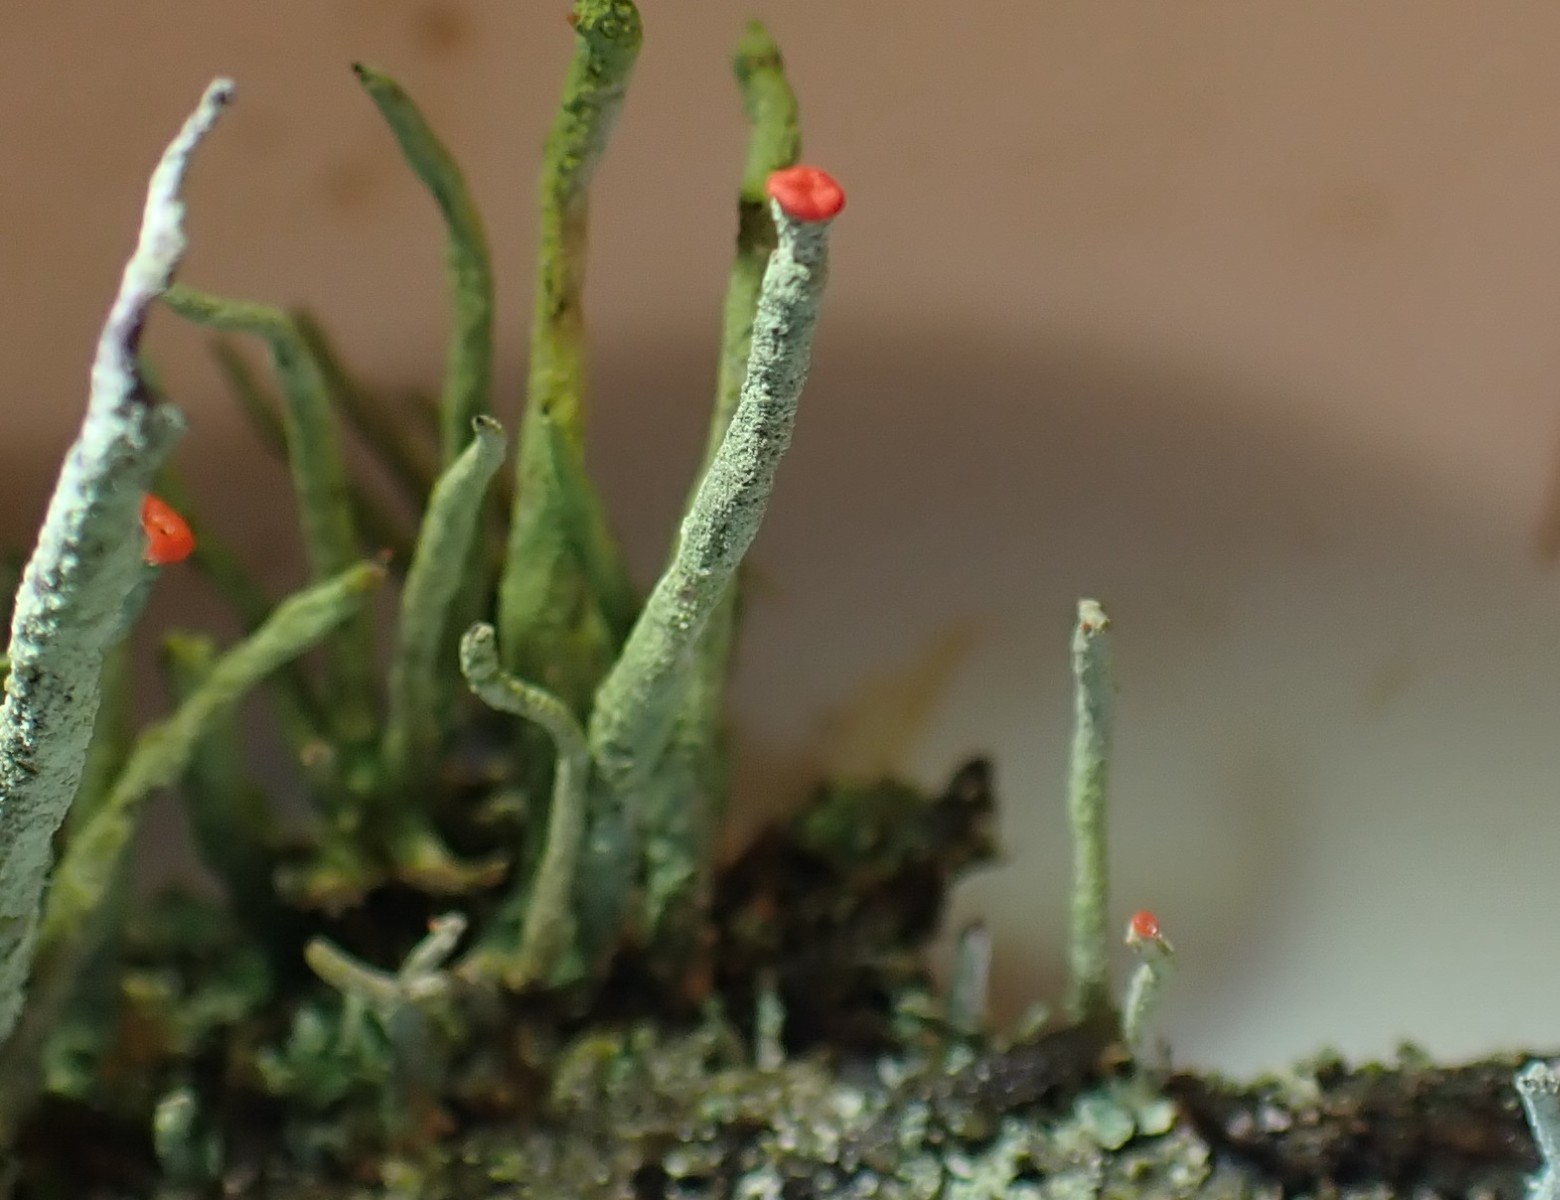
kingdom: Fungi
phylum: Ascomycota
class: Lecanoromycetes
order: Lecanorales
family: Cladoniaceae
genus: Cladonia
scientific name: Cladonia macilenta
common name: indsvunden bægerlav
